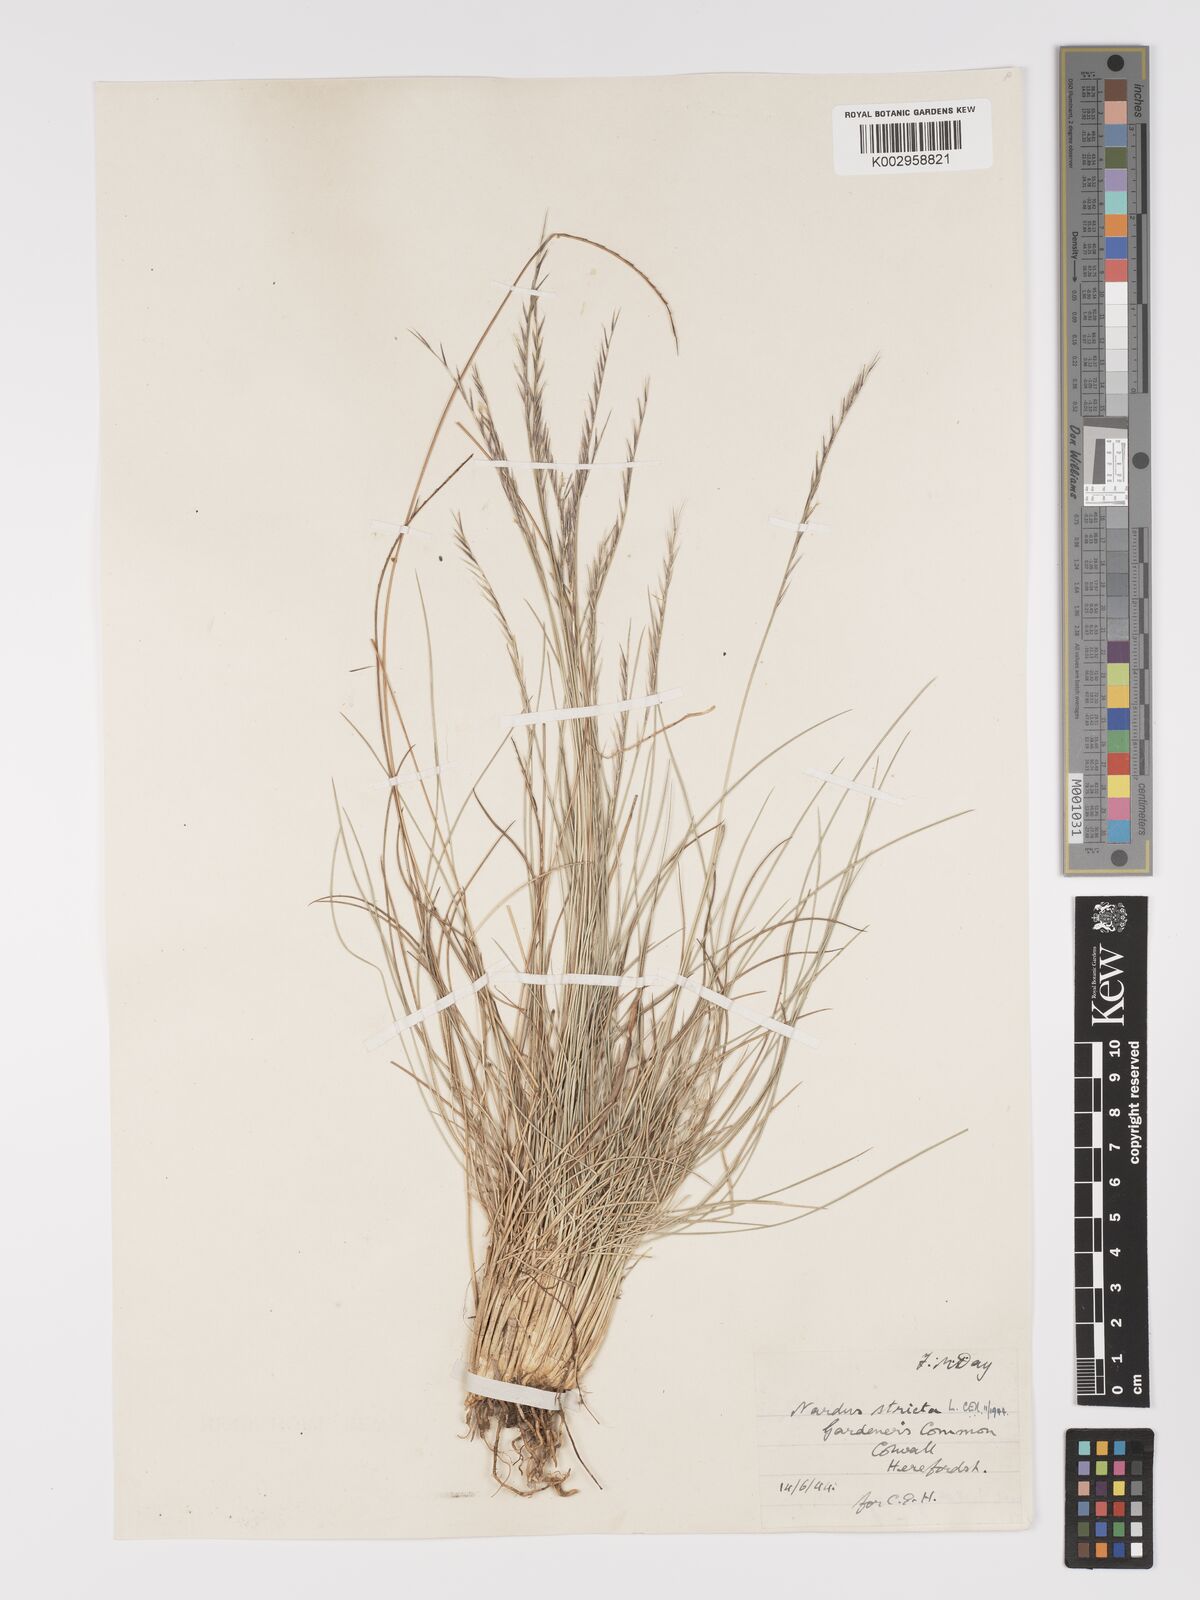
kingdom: Plantae
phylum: Tracheophyta
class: Liliopsida
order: Poales
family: Poaceae
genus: Nardus
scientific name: Nardus stricta
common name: Mat-grass
